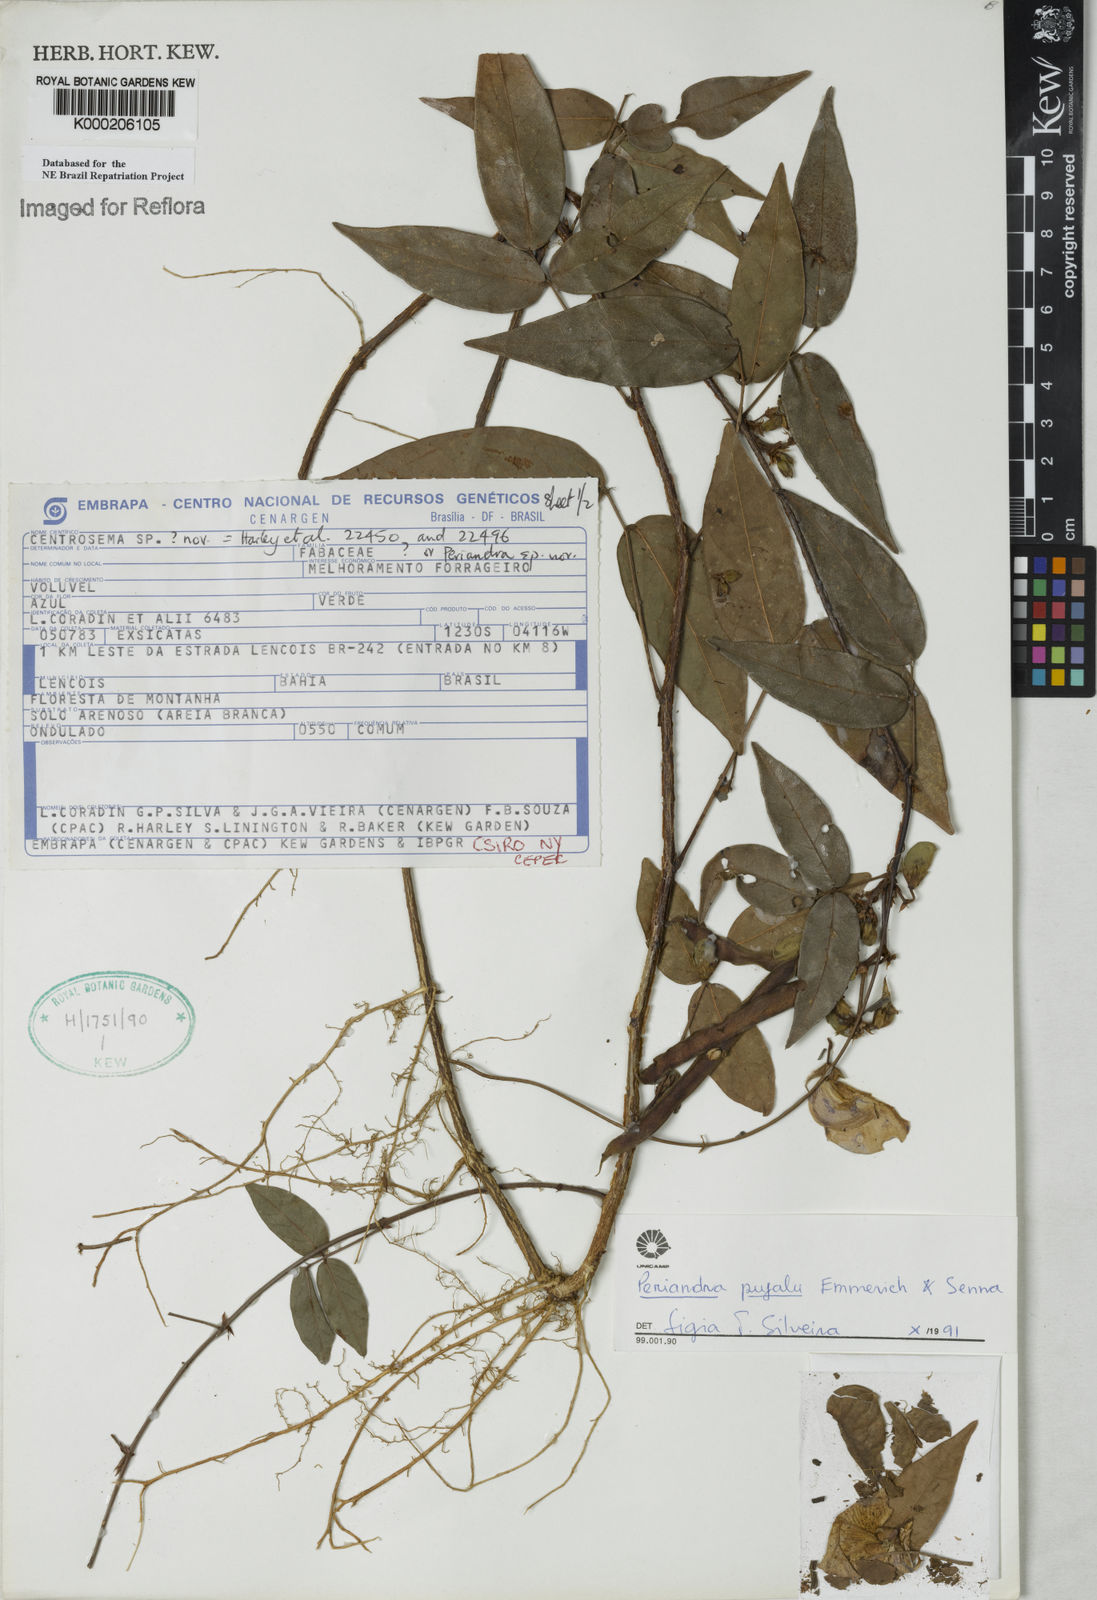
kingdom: Plantae
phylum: Tracheophyta
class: Magnoliopsida
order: Fabales
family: Fabaceae
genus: Periandra
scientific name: Periandra pujalu
